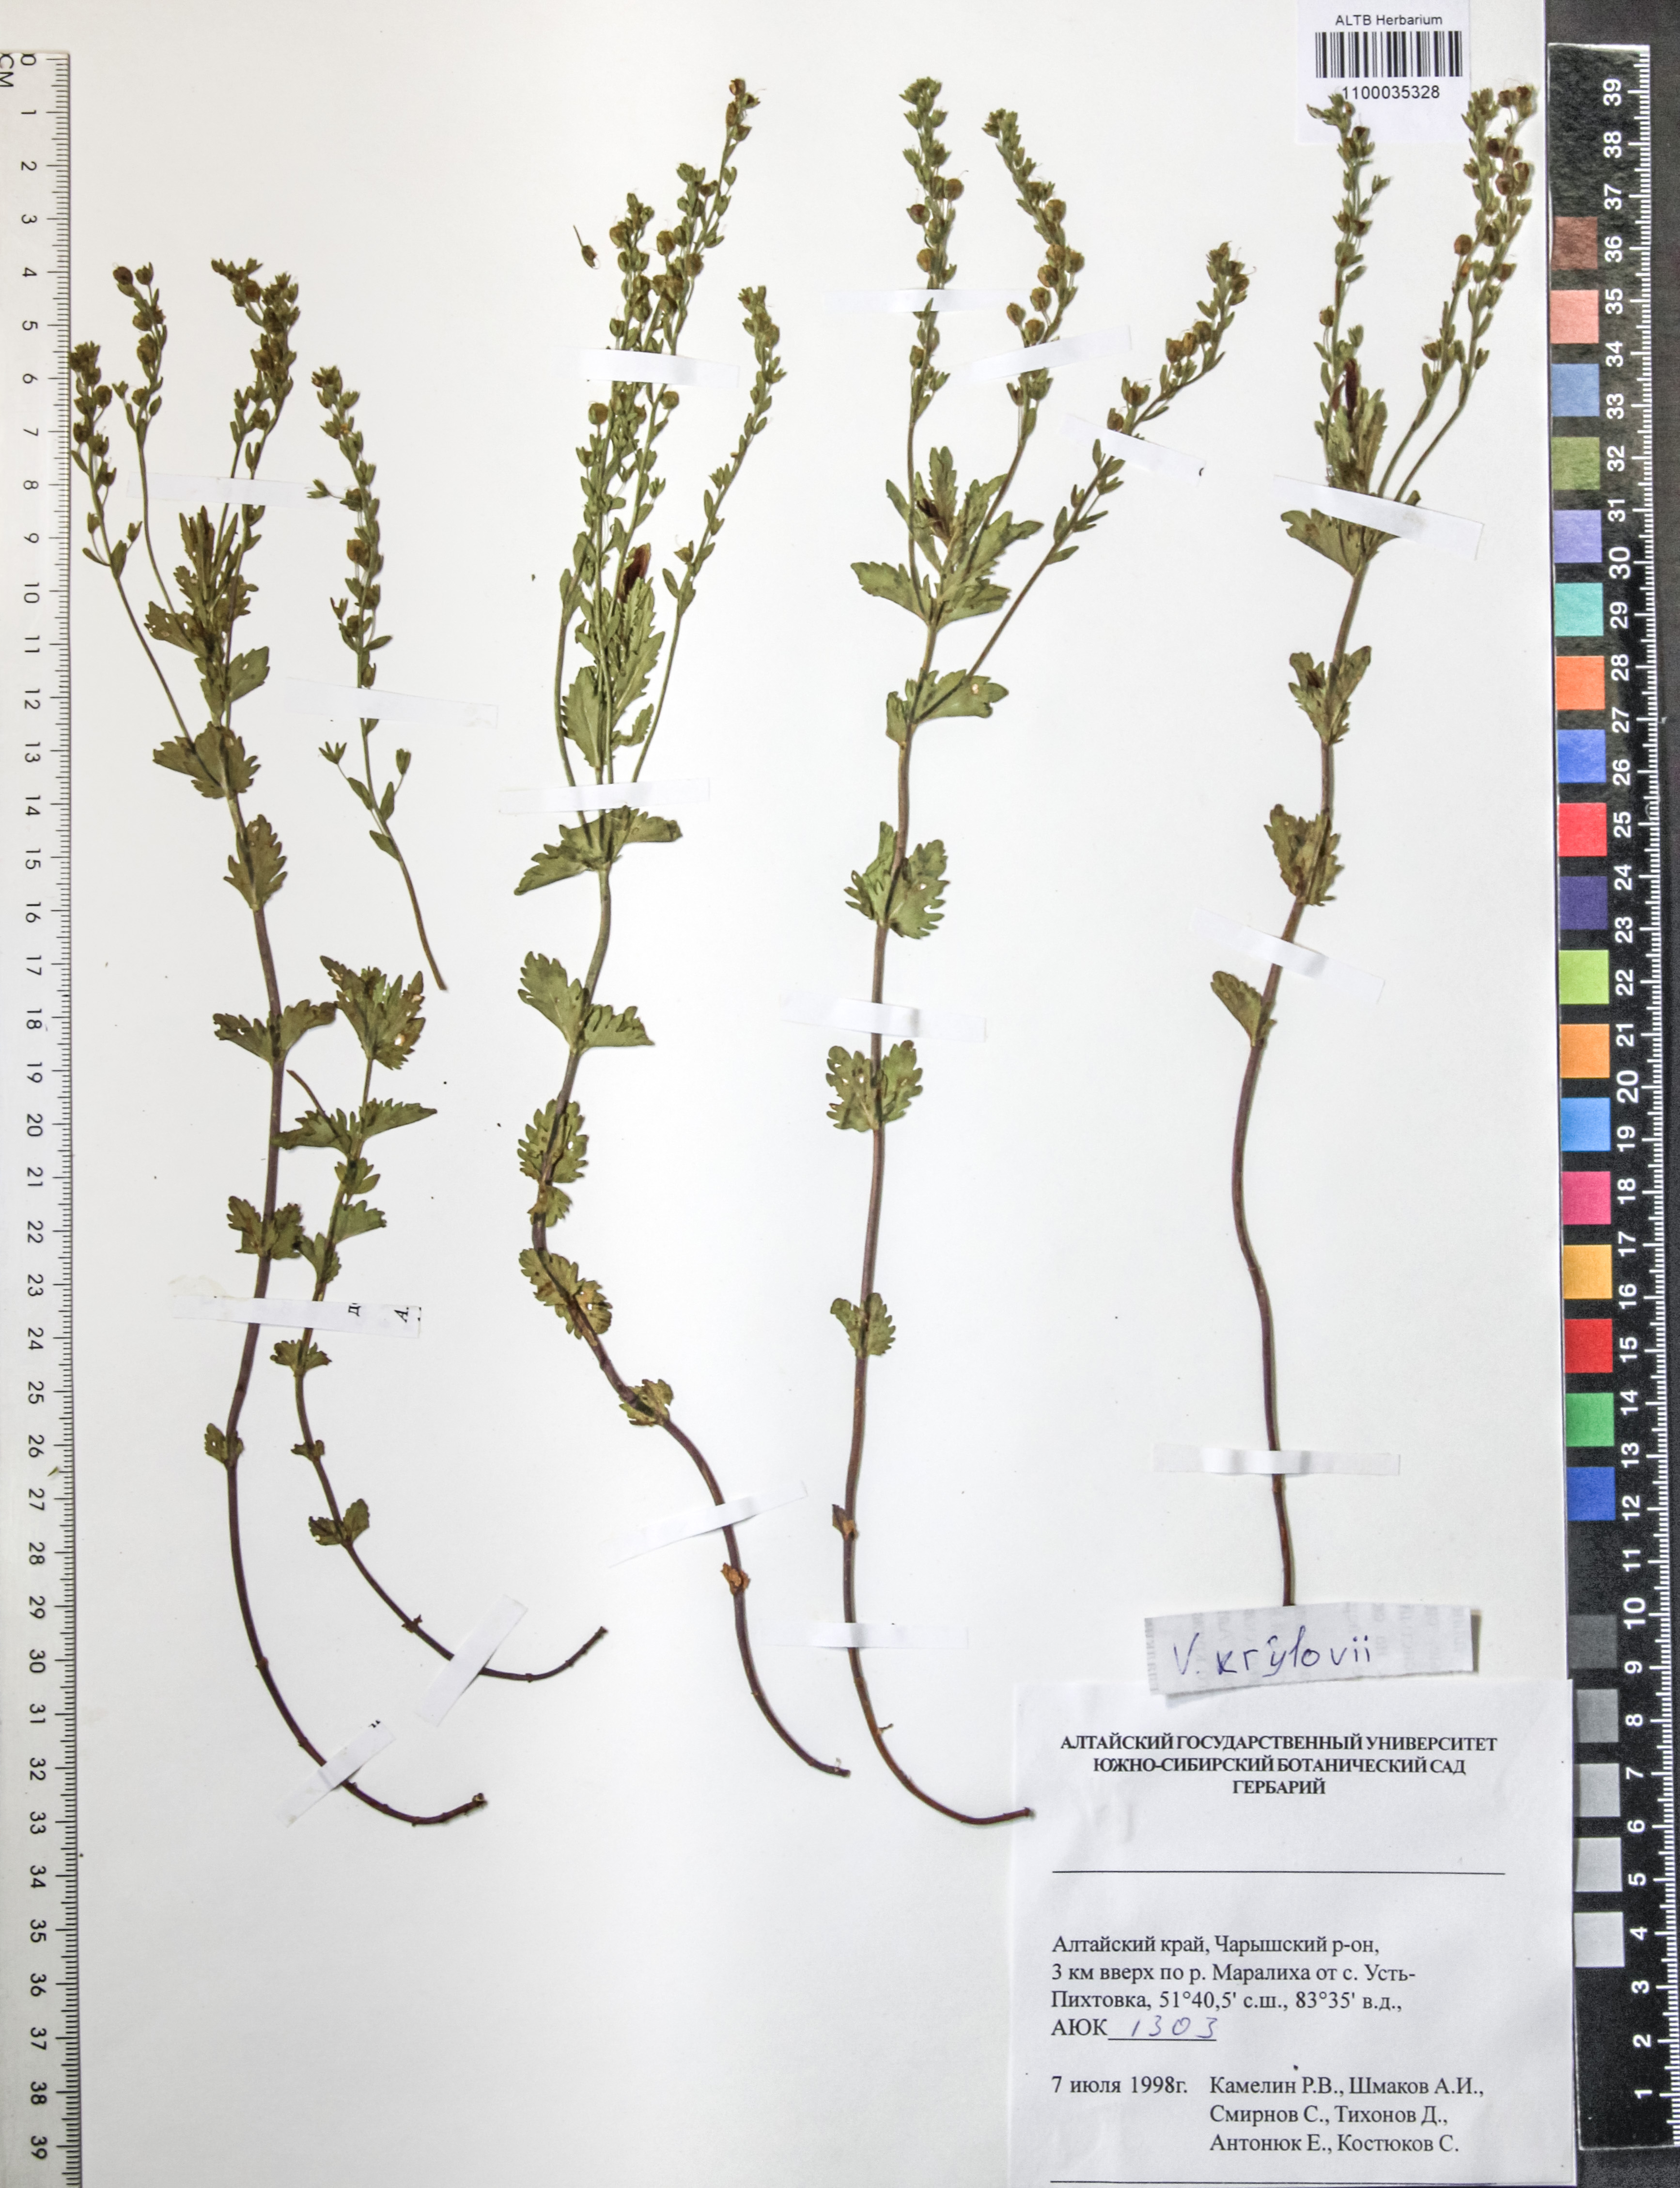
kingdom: Plantae
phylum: Tracheophyta
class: Magnoliopsida
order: Lamiales
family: Plantaginaceae
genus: Veronica
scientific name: Veronica krylovii
